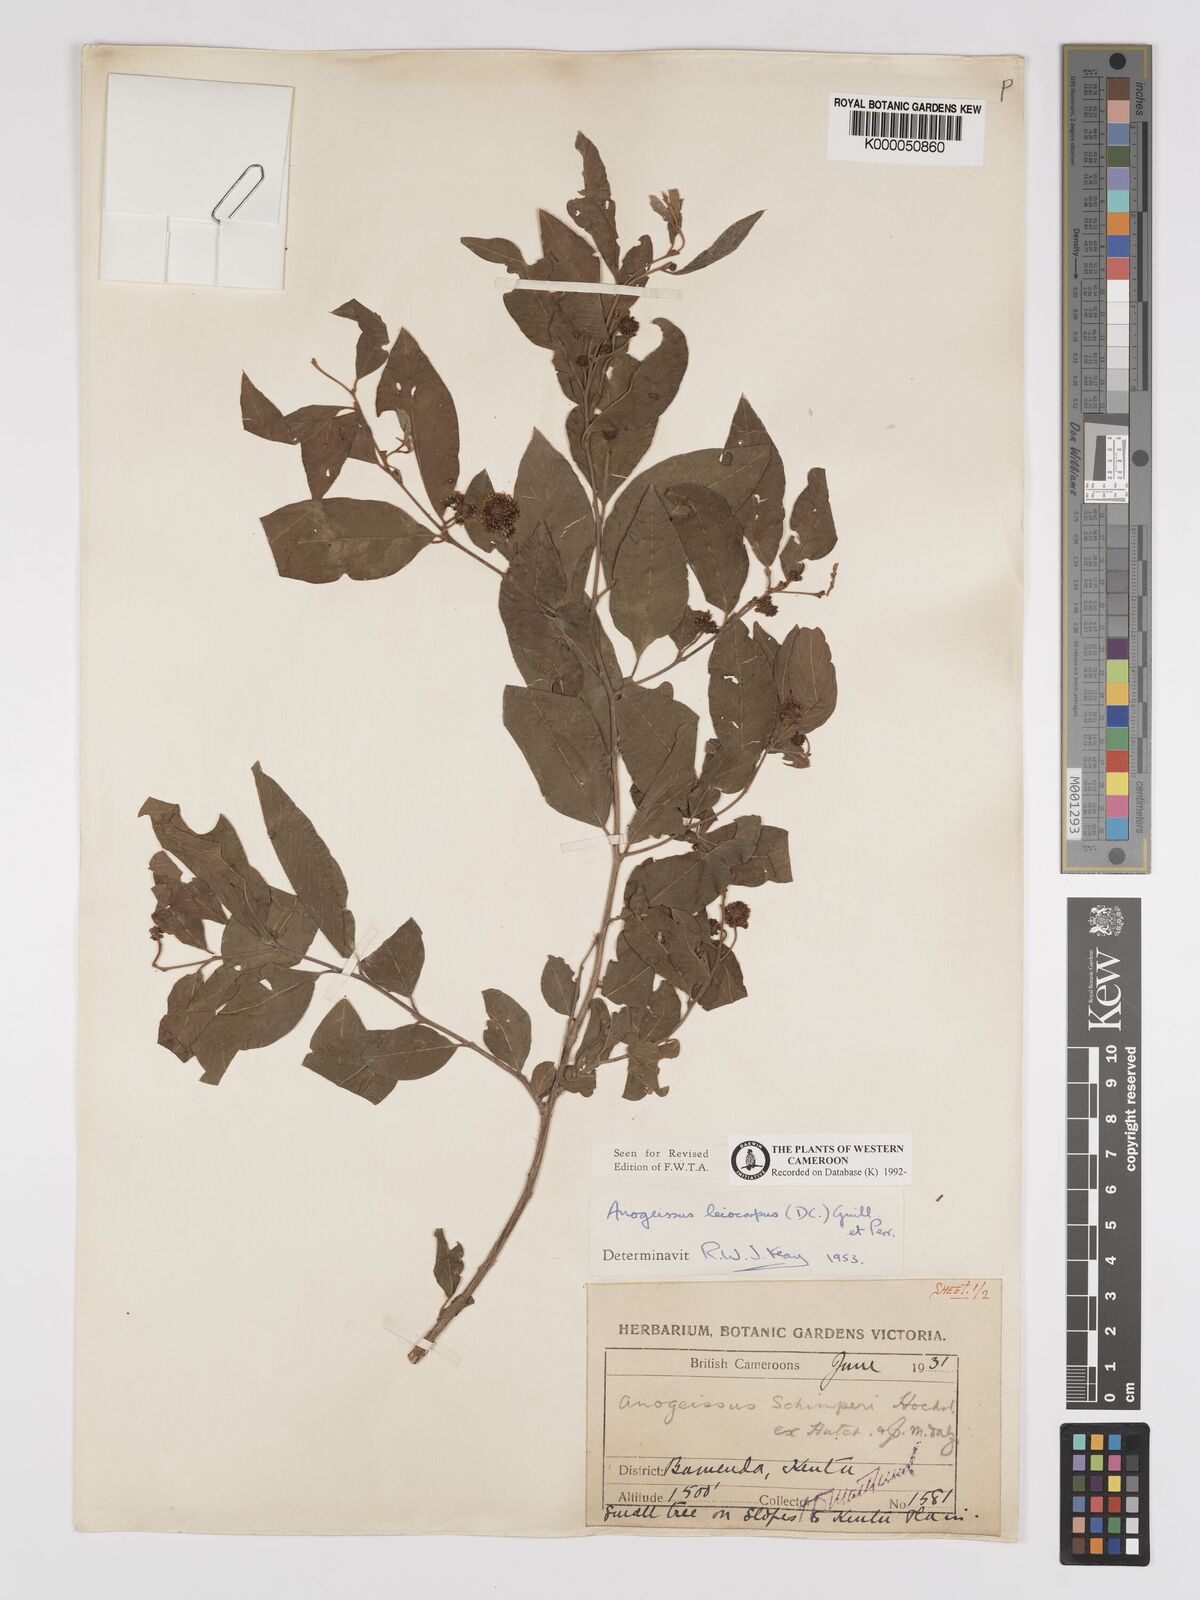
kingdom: Plantae
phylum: Tracheophyta
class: Magnoliopsida
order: Myrtales
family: Combretaceae
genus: Terminalia
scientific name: Terminalia leiocarpa
